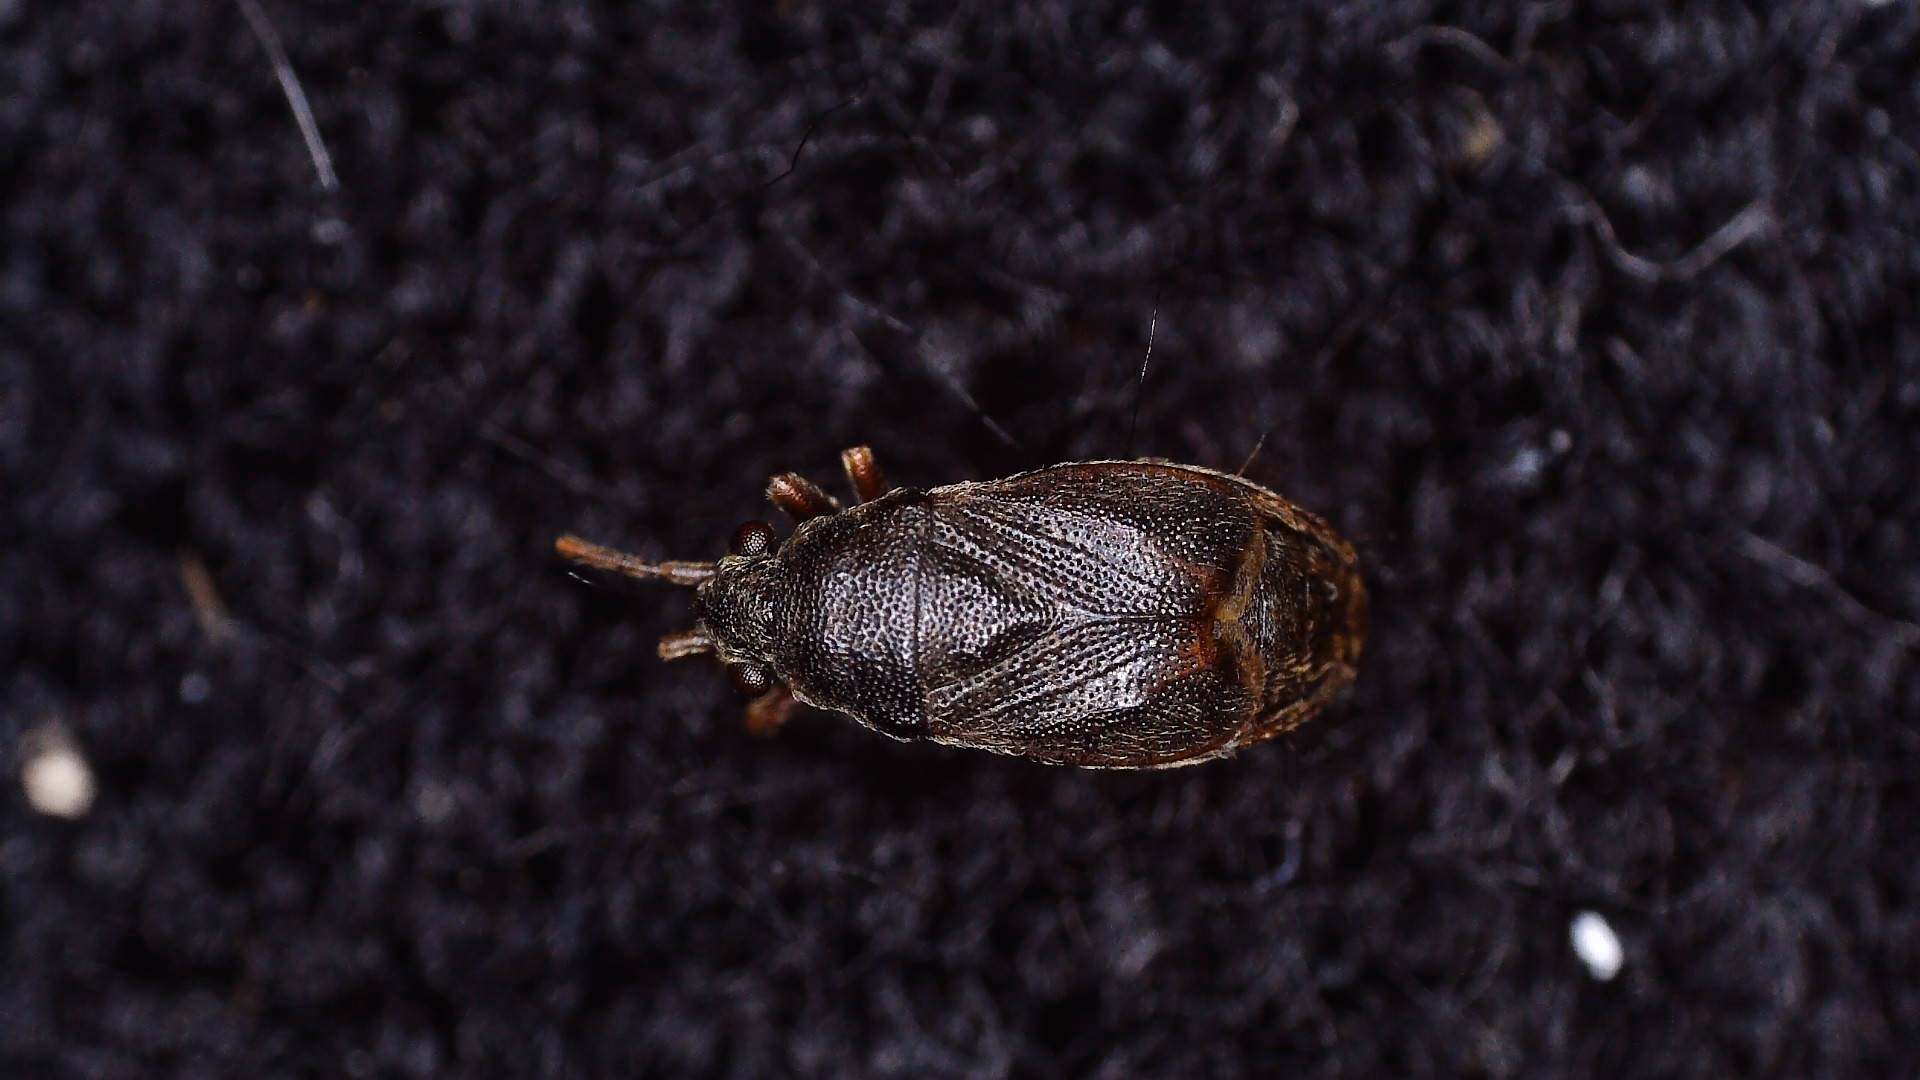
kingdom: Animalia
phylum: Arthropoda
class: Insecta
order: Hemiptera
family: Rhyparochromidae
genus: Stygnocoris
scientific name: Stygnocoris
